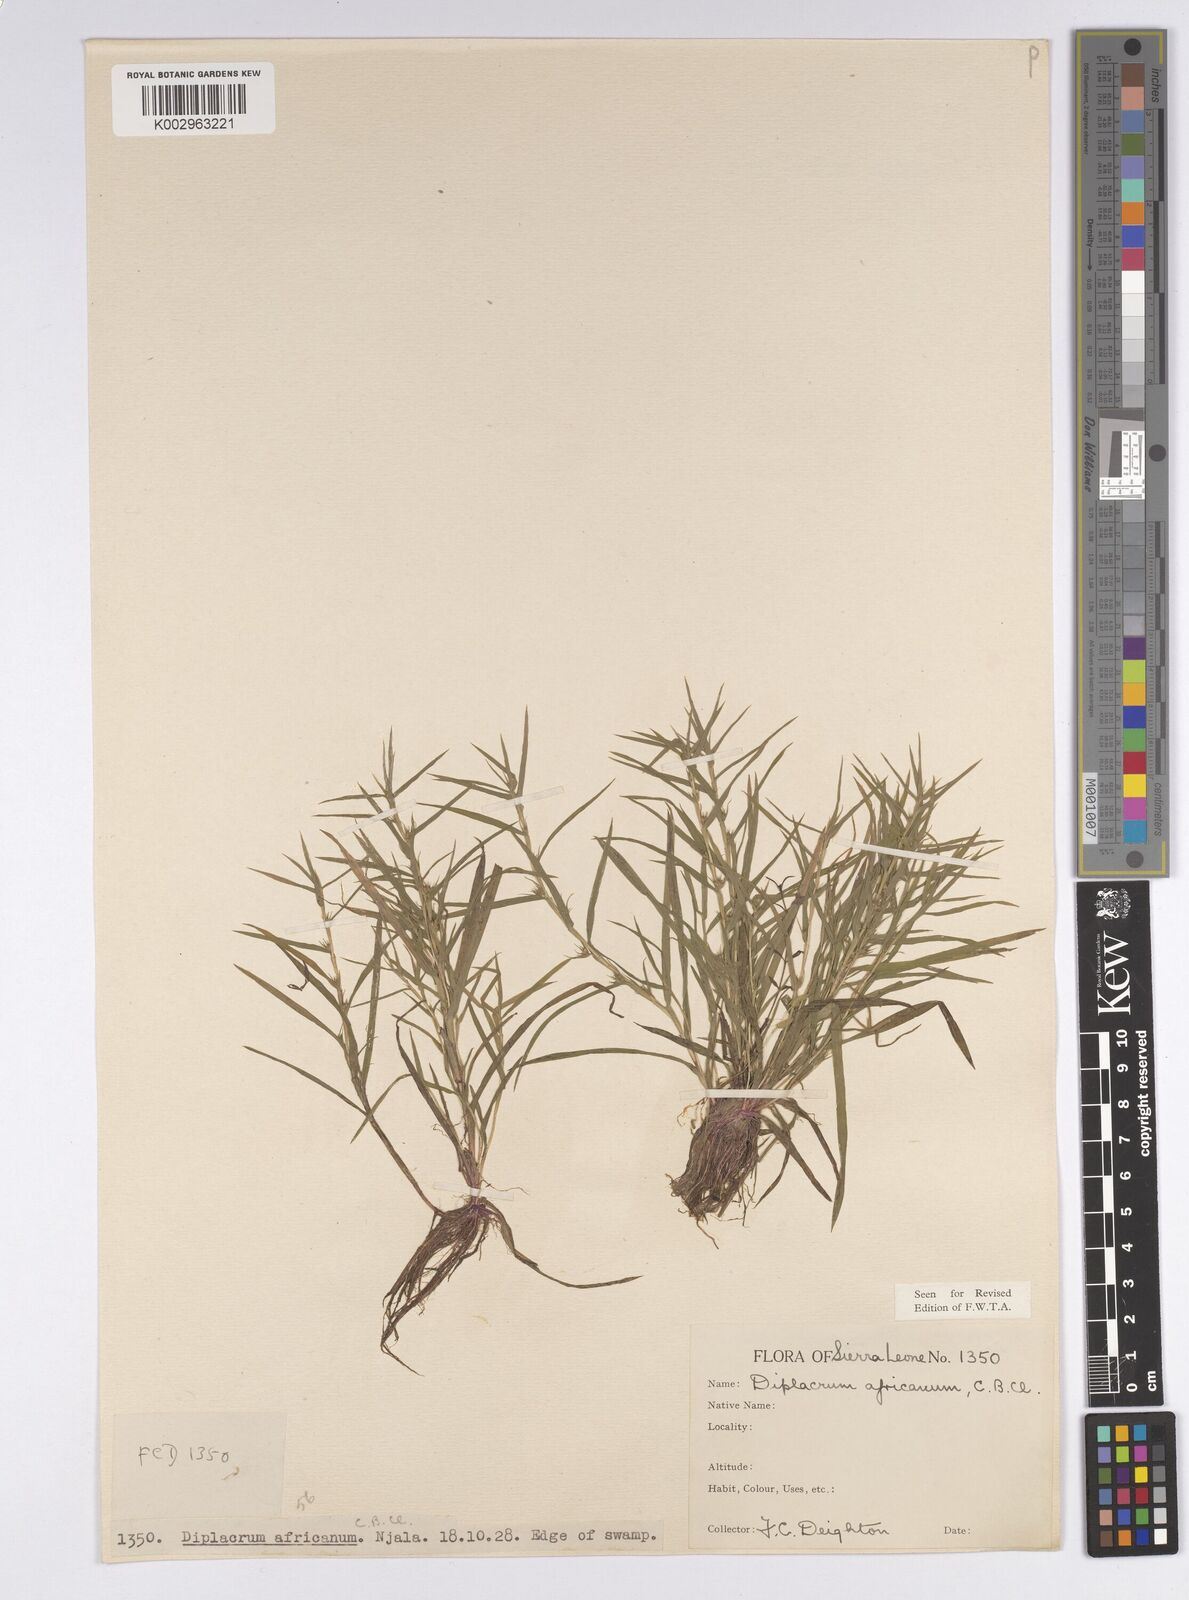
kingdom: Plantae
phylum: Tracheophyta
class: Liliopsida
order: Poales
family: Cyperaceae
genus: Diplacrum
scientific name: Diplacrum africanum
